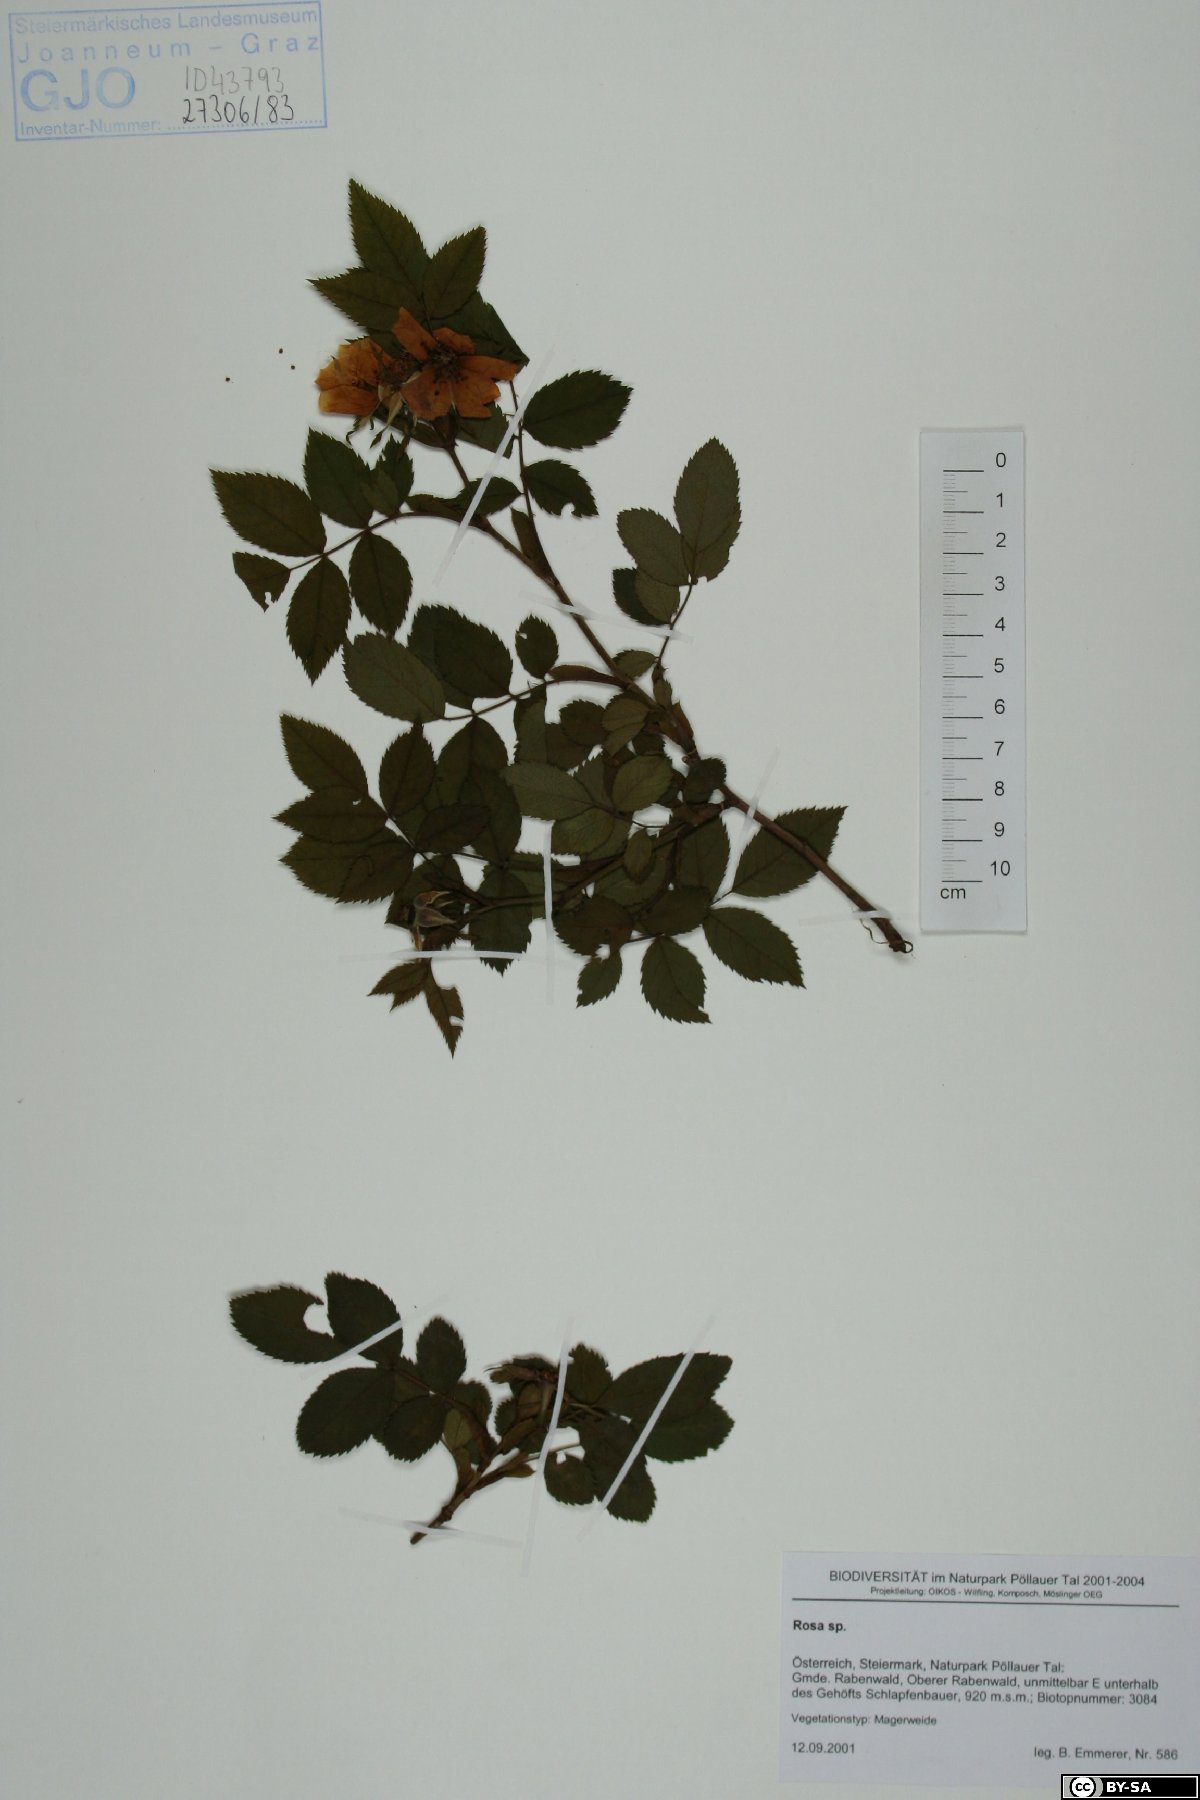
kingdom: Plantae
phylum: Tracheophyta
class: Magnoliopsida
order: Rosales
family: Rosaceae
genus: Rosa
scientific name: Rosa
